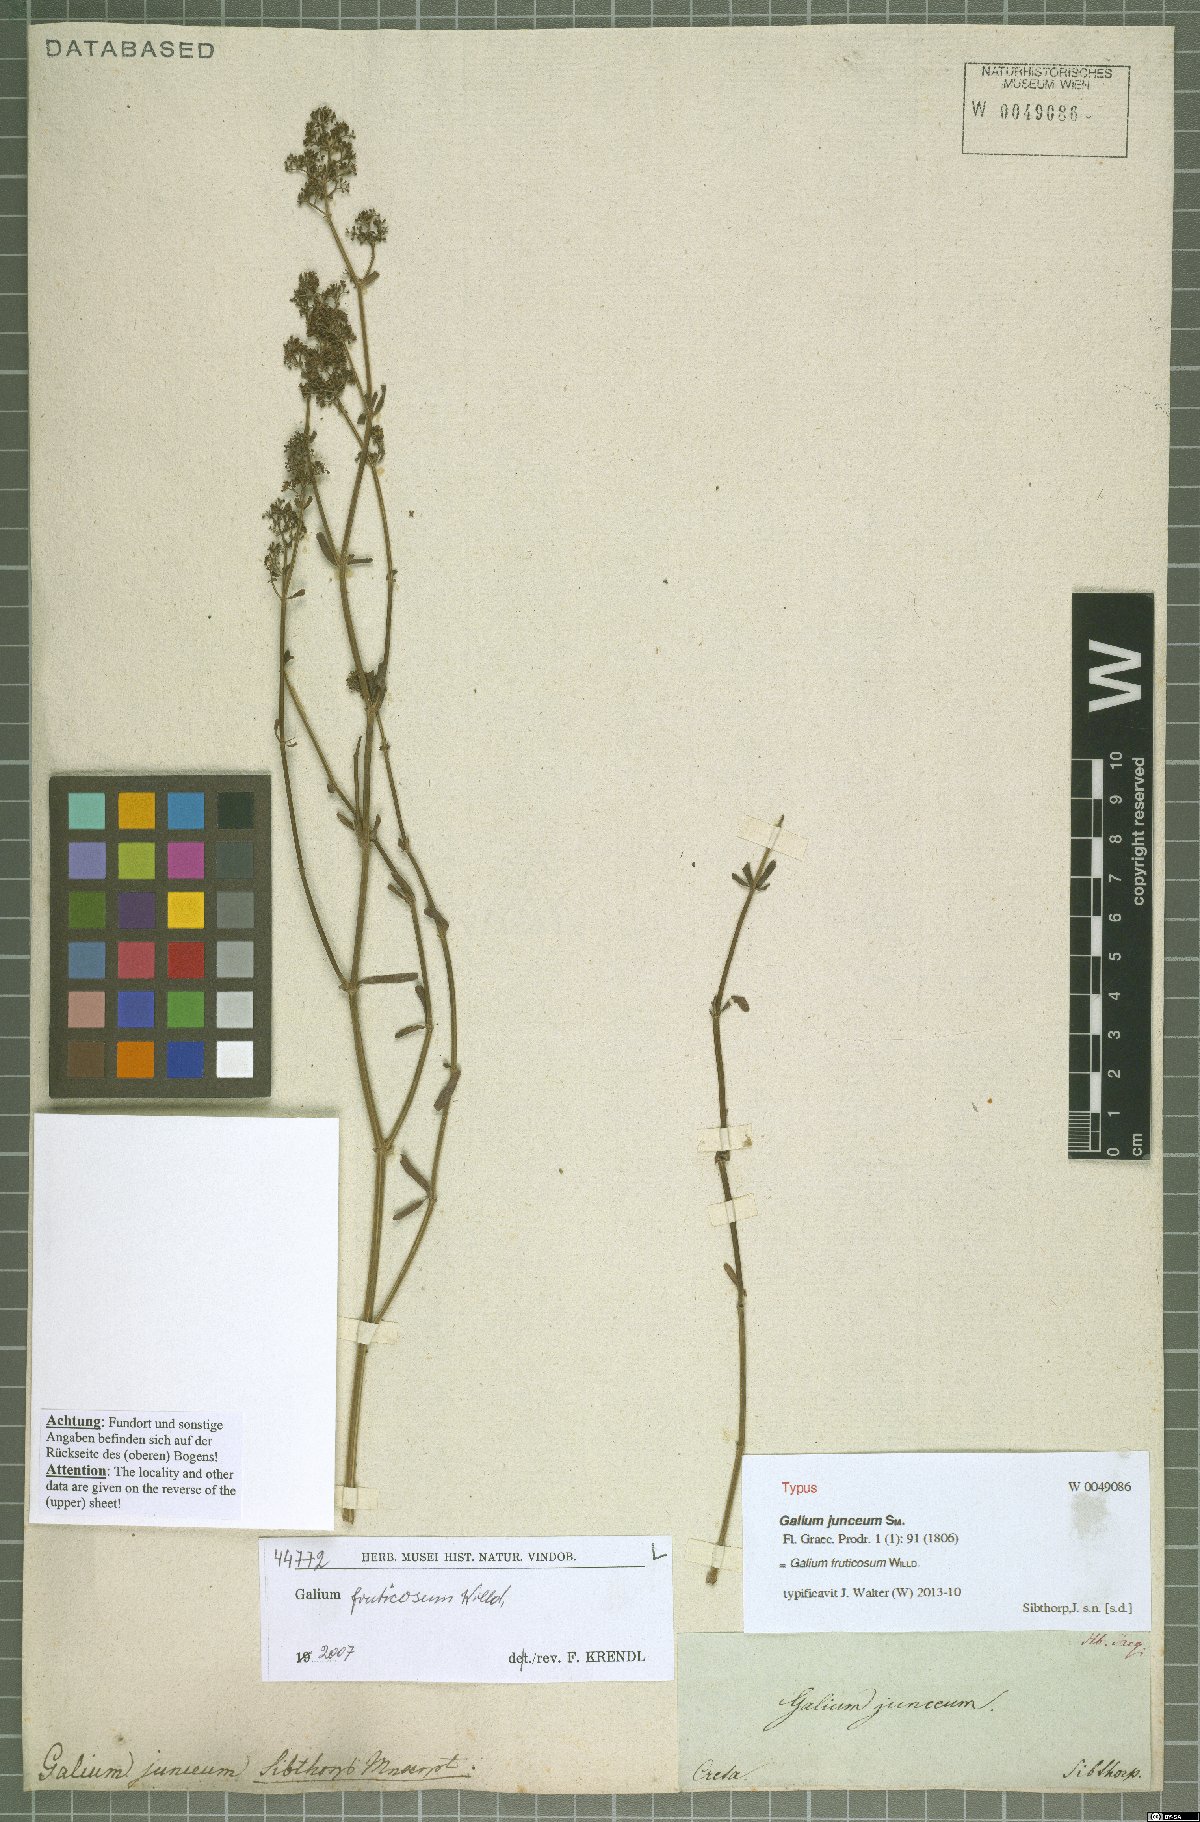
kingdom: Plantae
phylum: Tracheophyta
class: Magnoliopsida
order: Gentianales
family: Rubiaceae
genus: Galium
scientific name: Galium fruticosum
